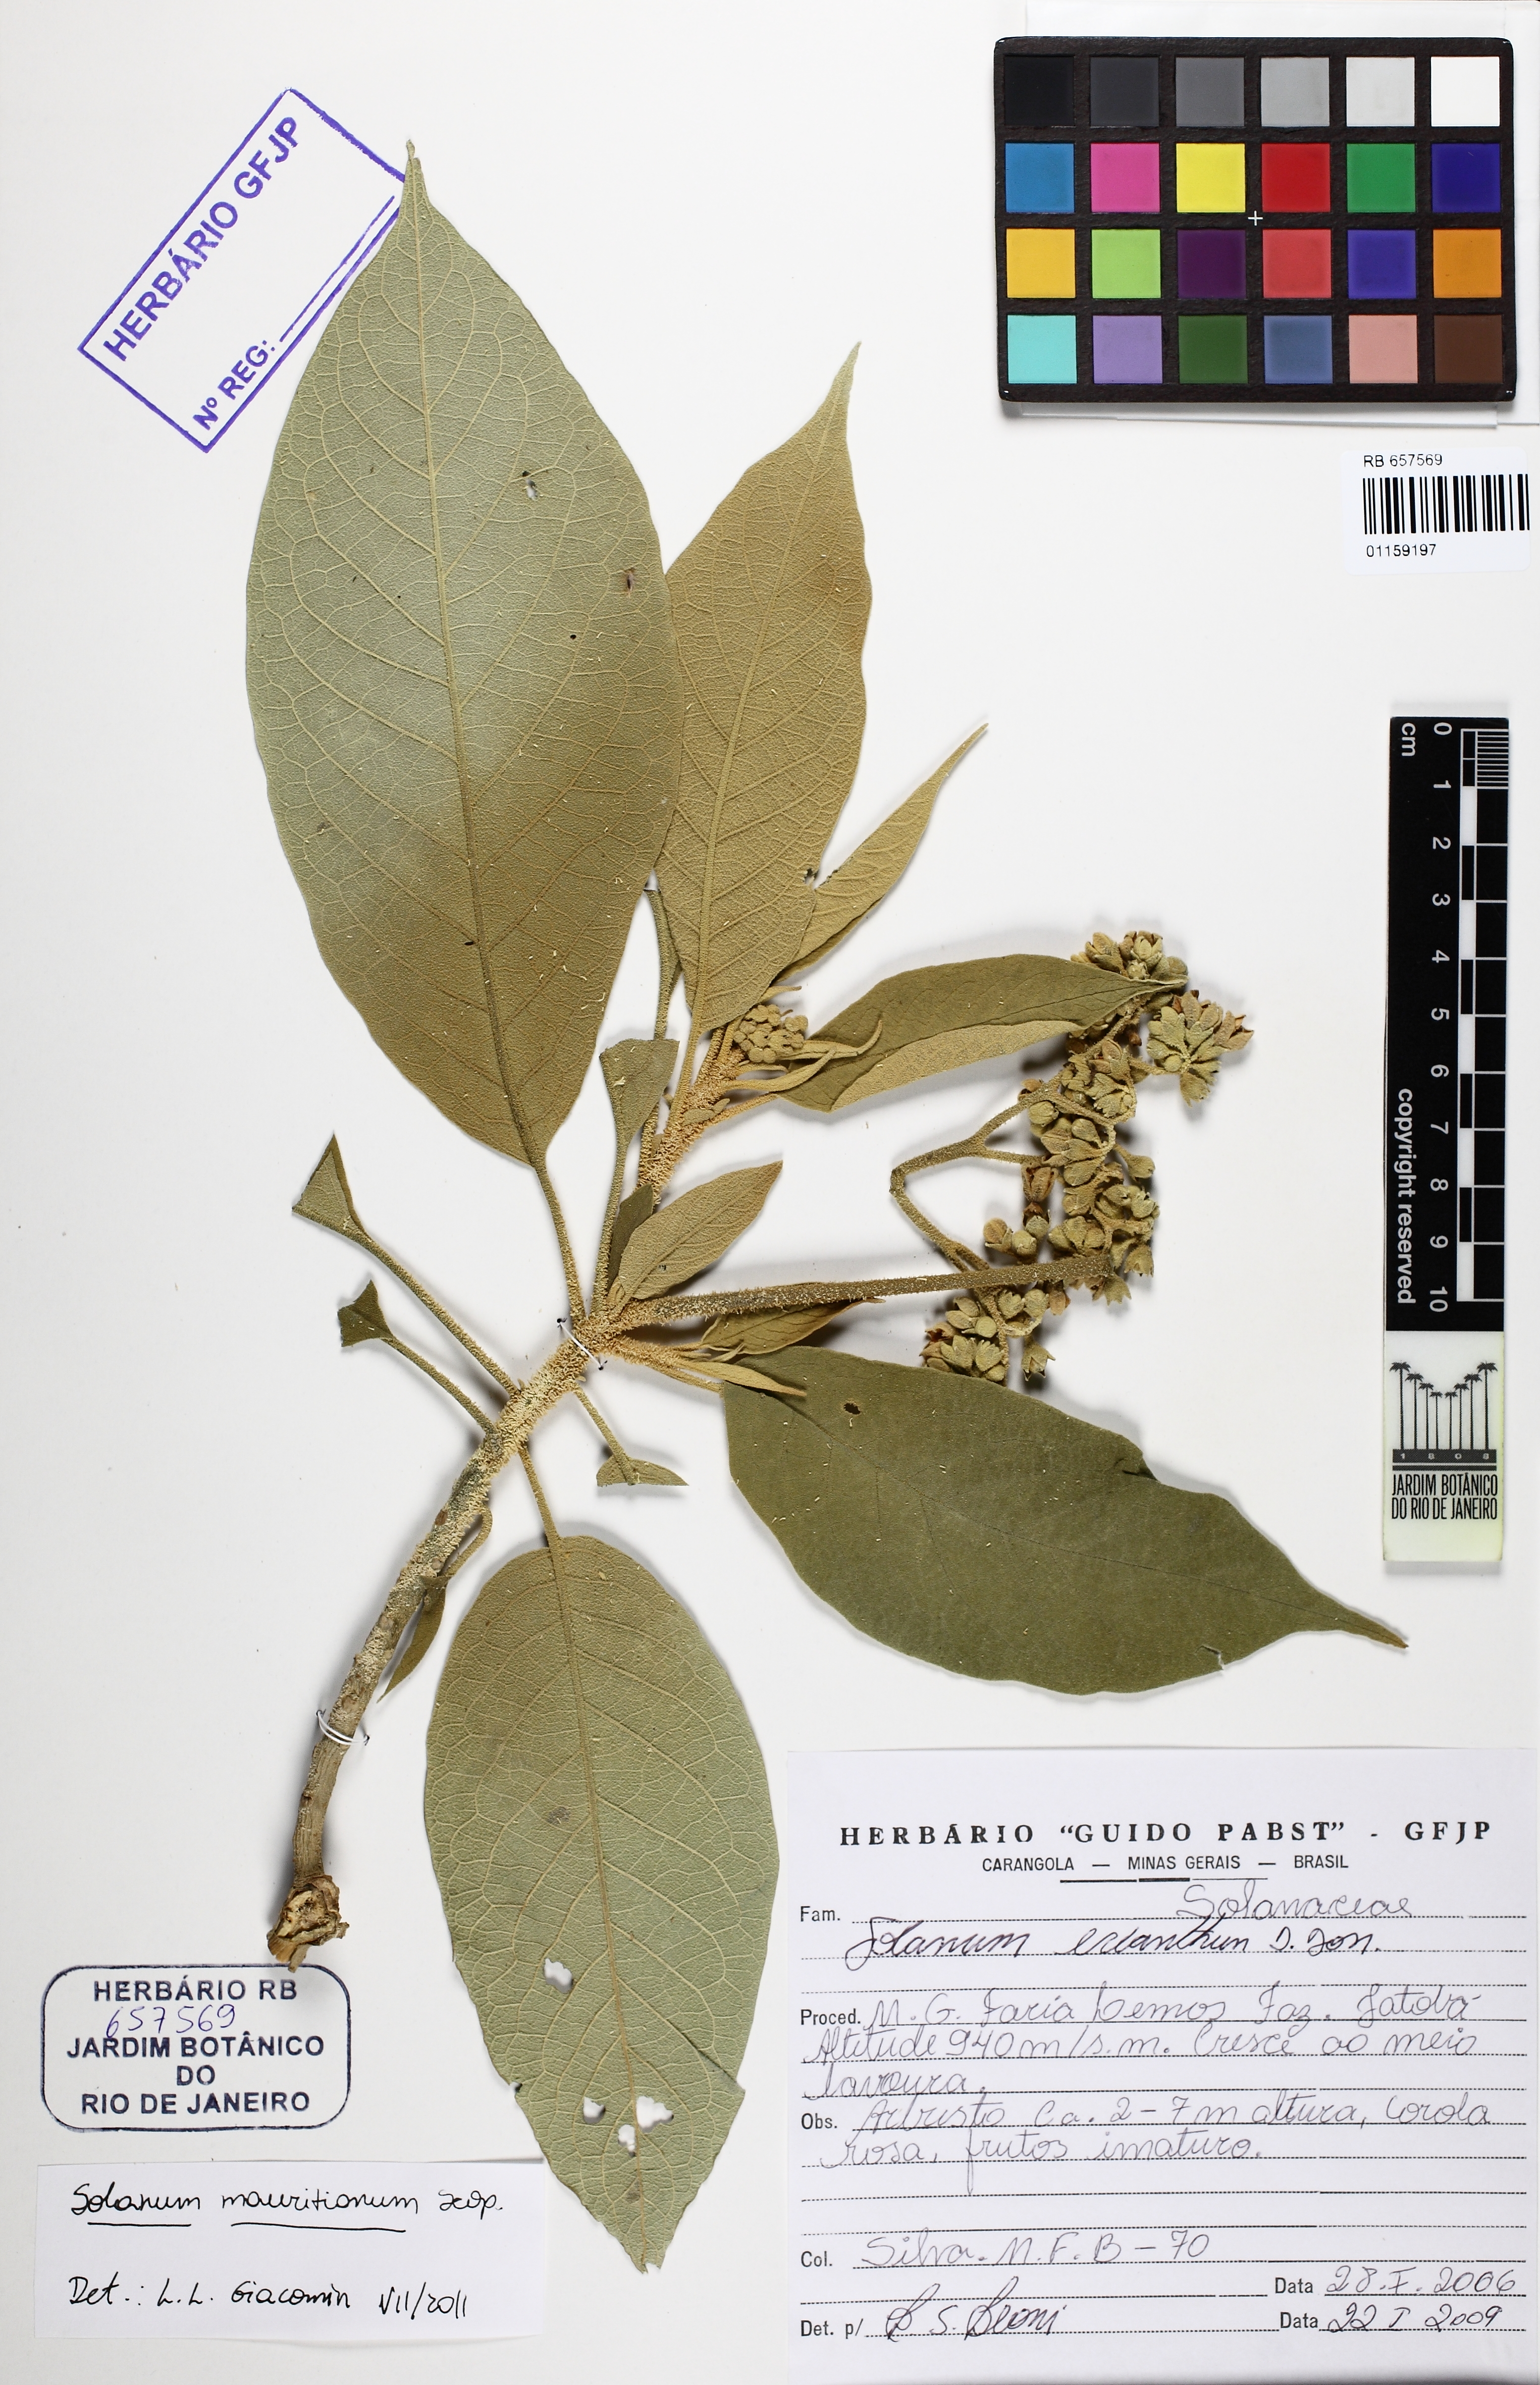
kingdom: Plantae
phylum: Tracheophyta
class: Magnoliopsida
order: Solanales
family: Solanaceae
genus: Solanum
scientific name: Solanum mauritianum
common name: Earleaf nightshade
